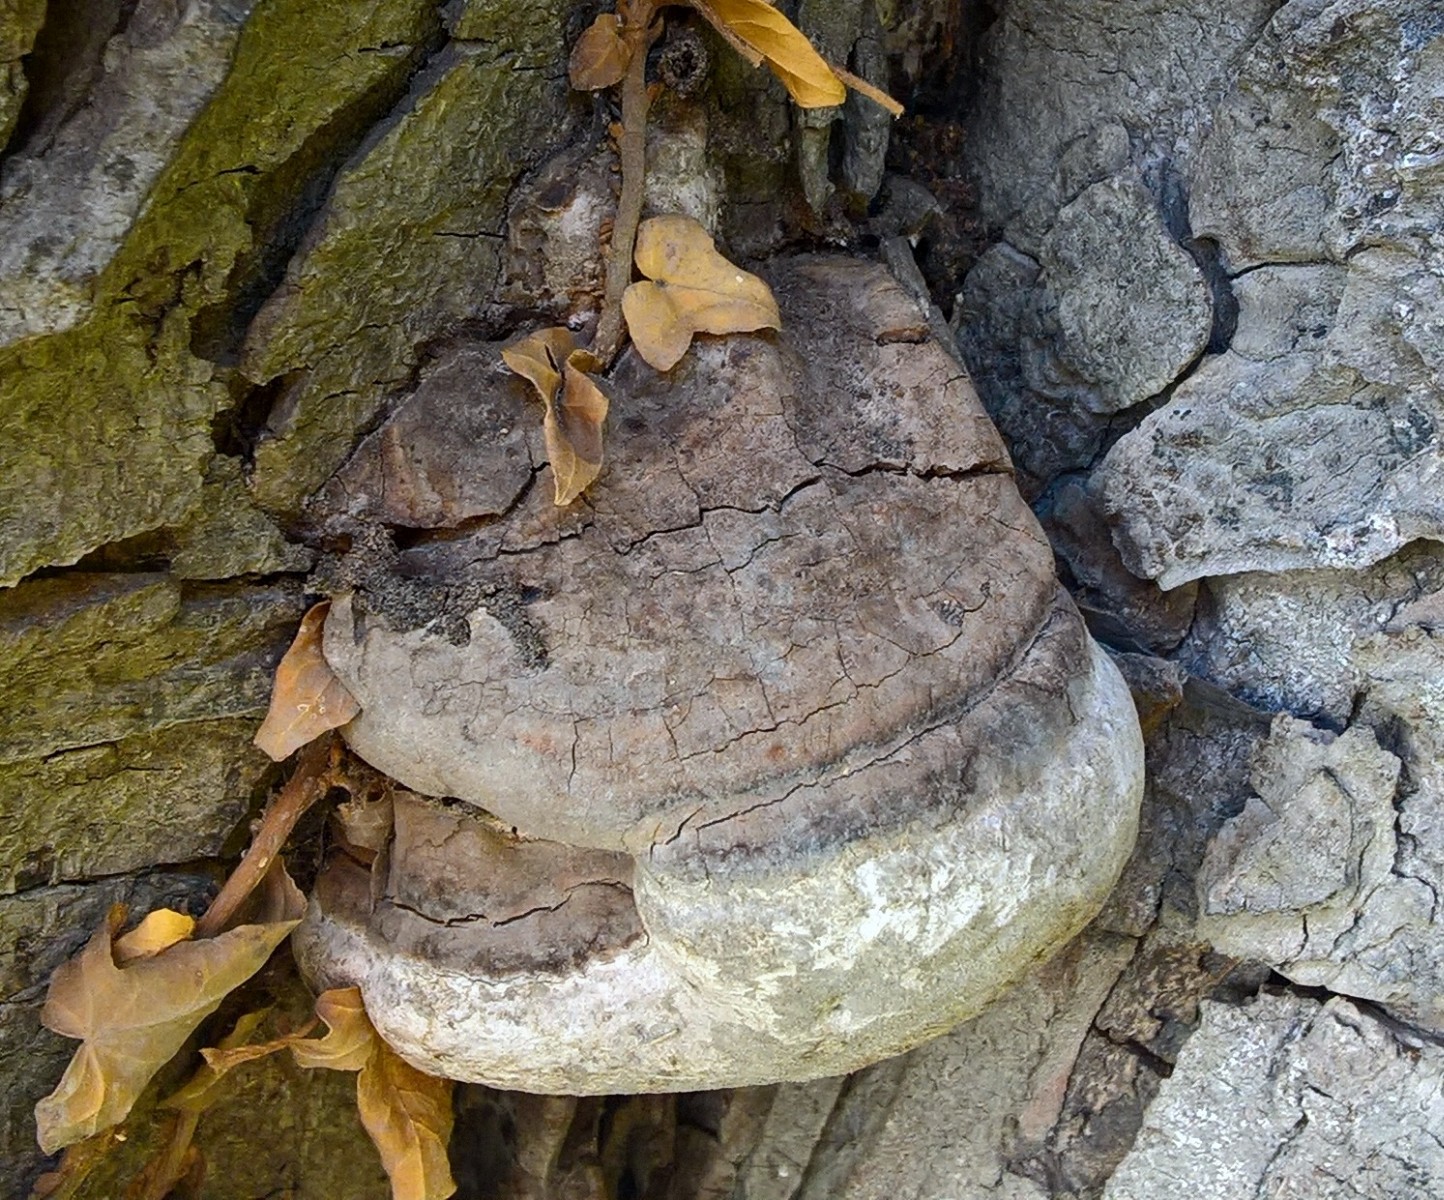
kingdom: Fungi
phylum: Basidiomycota
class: Agaricomycetes
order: Polyporales
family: Polyporaceae
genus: Ganoderma
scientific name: Ganoderma adspersum
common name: grov lakporesvamp
